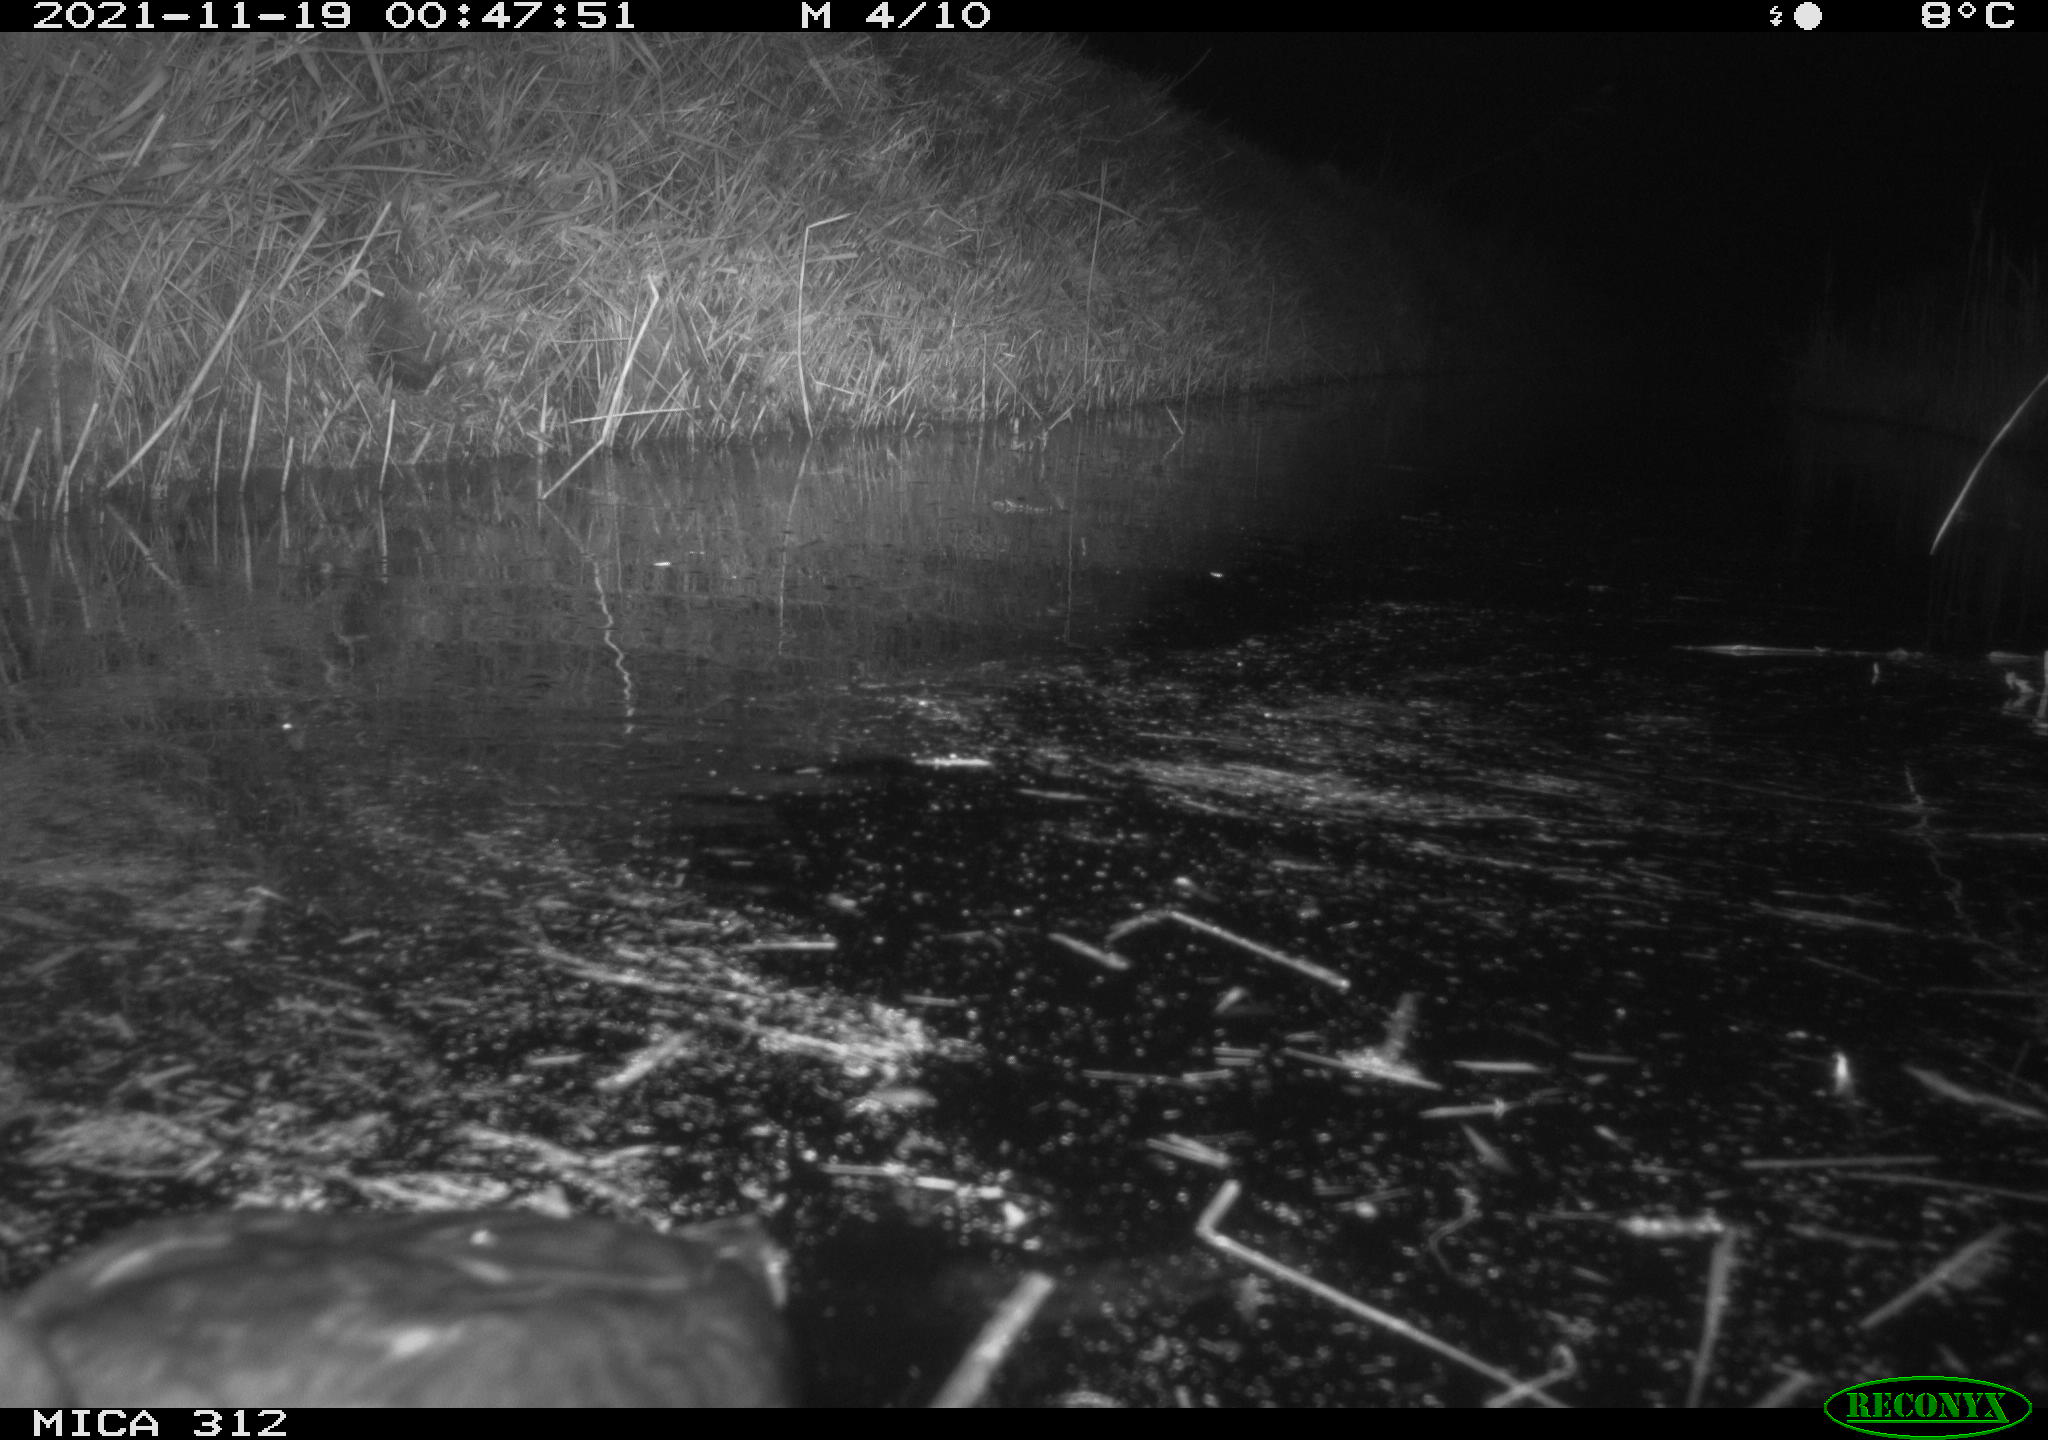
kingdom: Animalia
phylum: Chordata
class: Aves
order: Anseriformes
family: Anatidae
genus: Anas
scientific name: Anas
